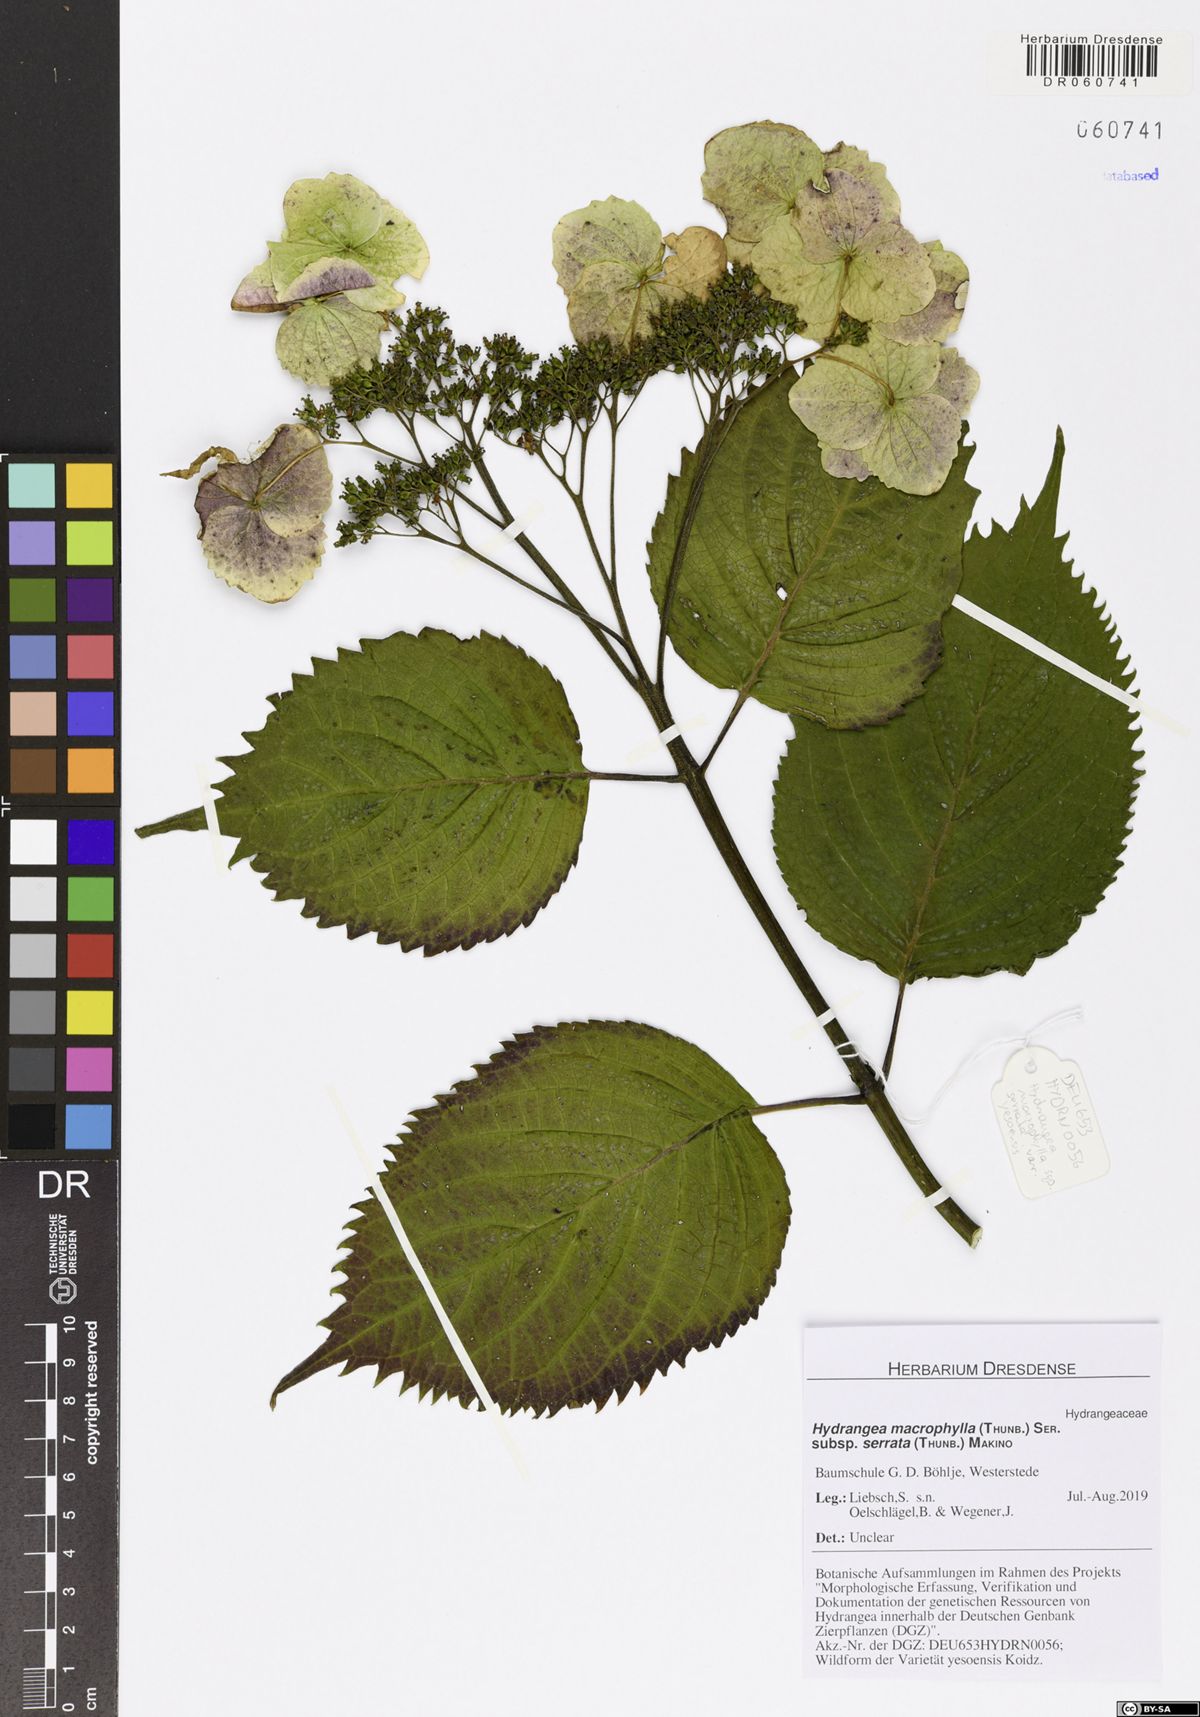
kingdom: Plantae
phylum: Tracheophyta
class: Magnoliopsida
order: Cornales
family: Hydrangeaceae
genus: Hydrangea
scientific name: Hydrangea serrata
